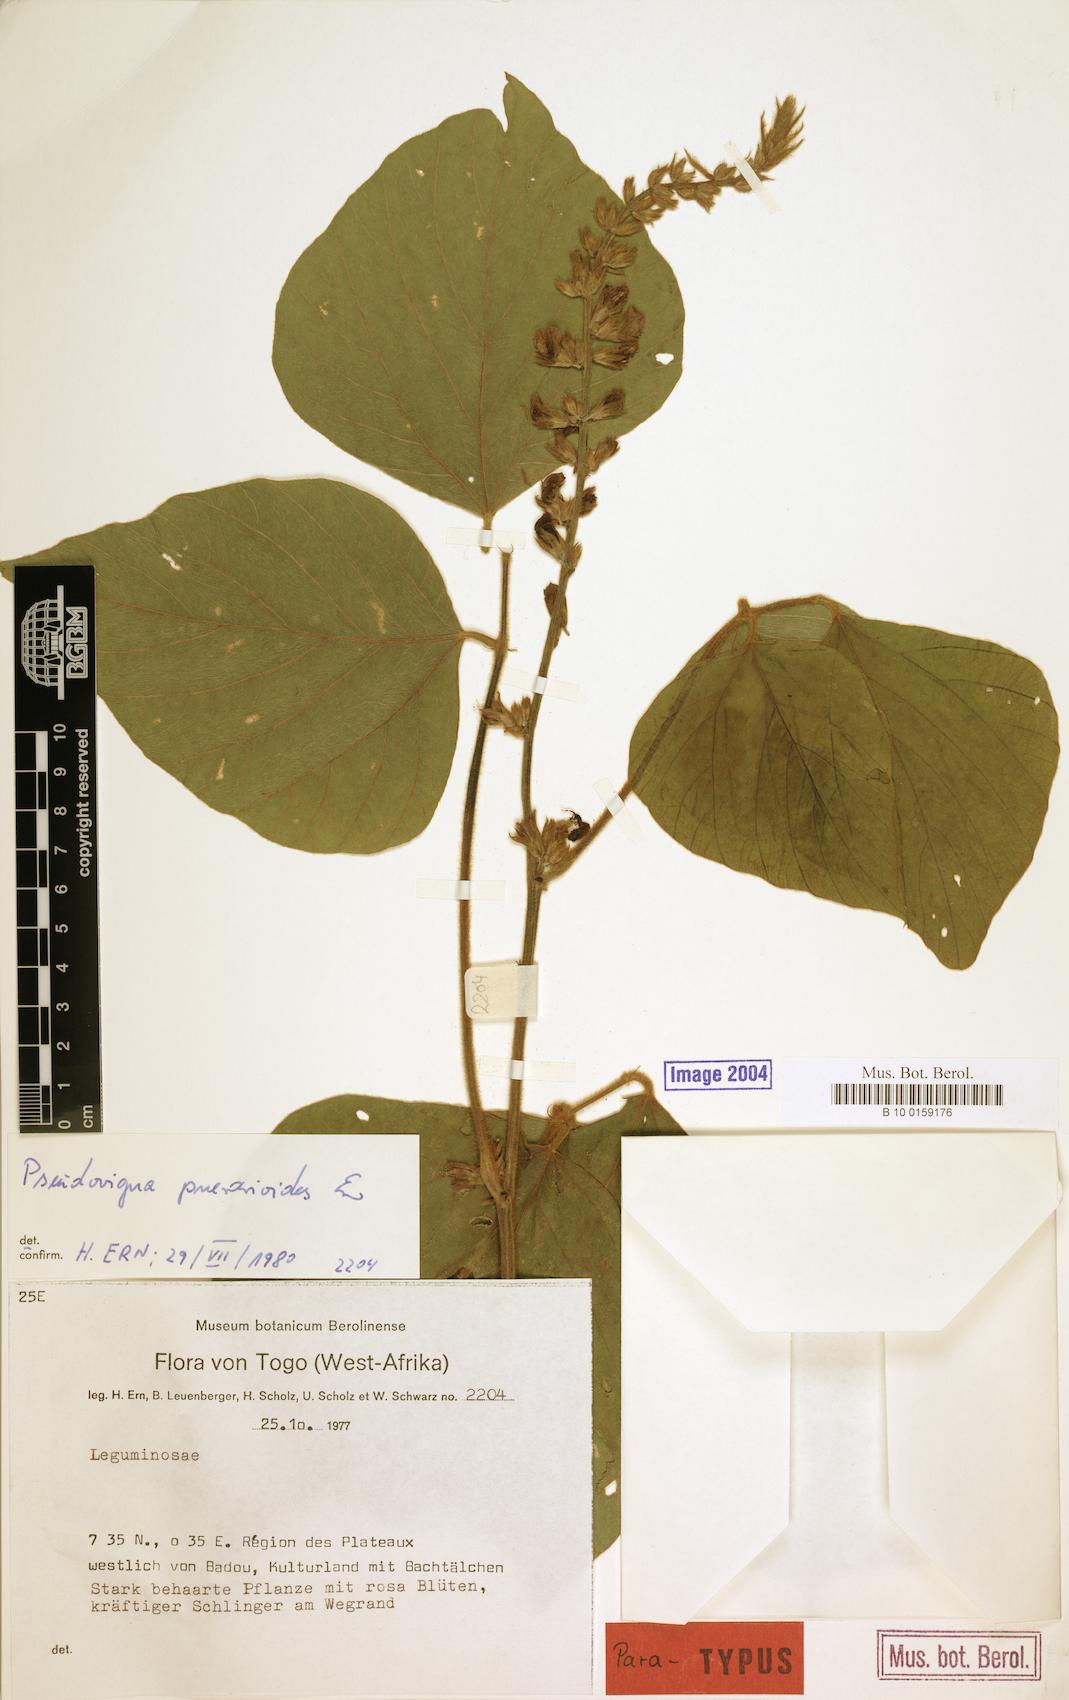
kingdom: Plantae
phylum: Tracheophyta
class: Magnoliopsida
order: Fabales
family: Fabaceae
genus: Pseudovigna
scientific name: Pseudovigna puerarioides
